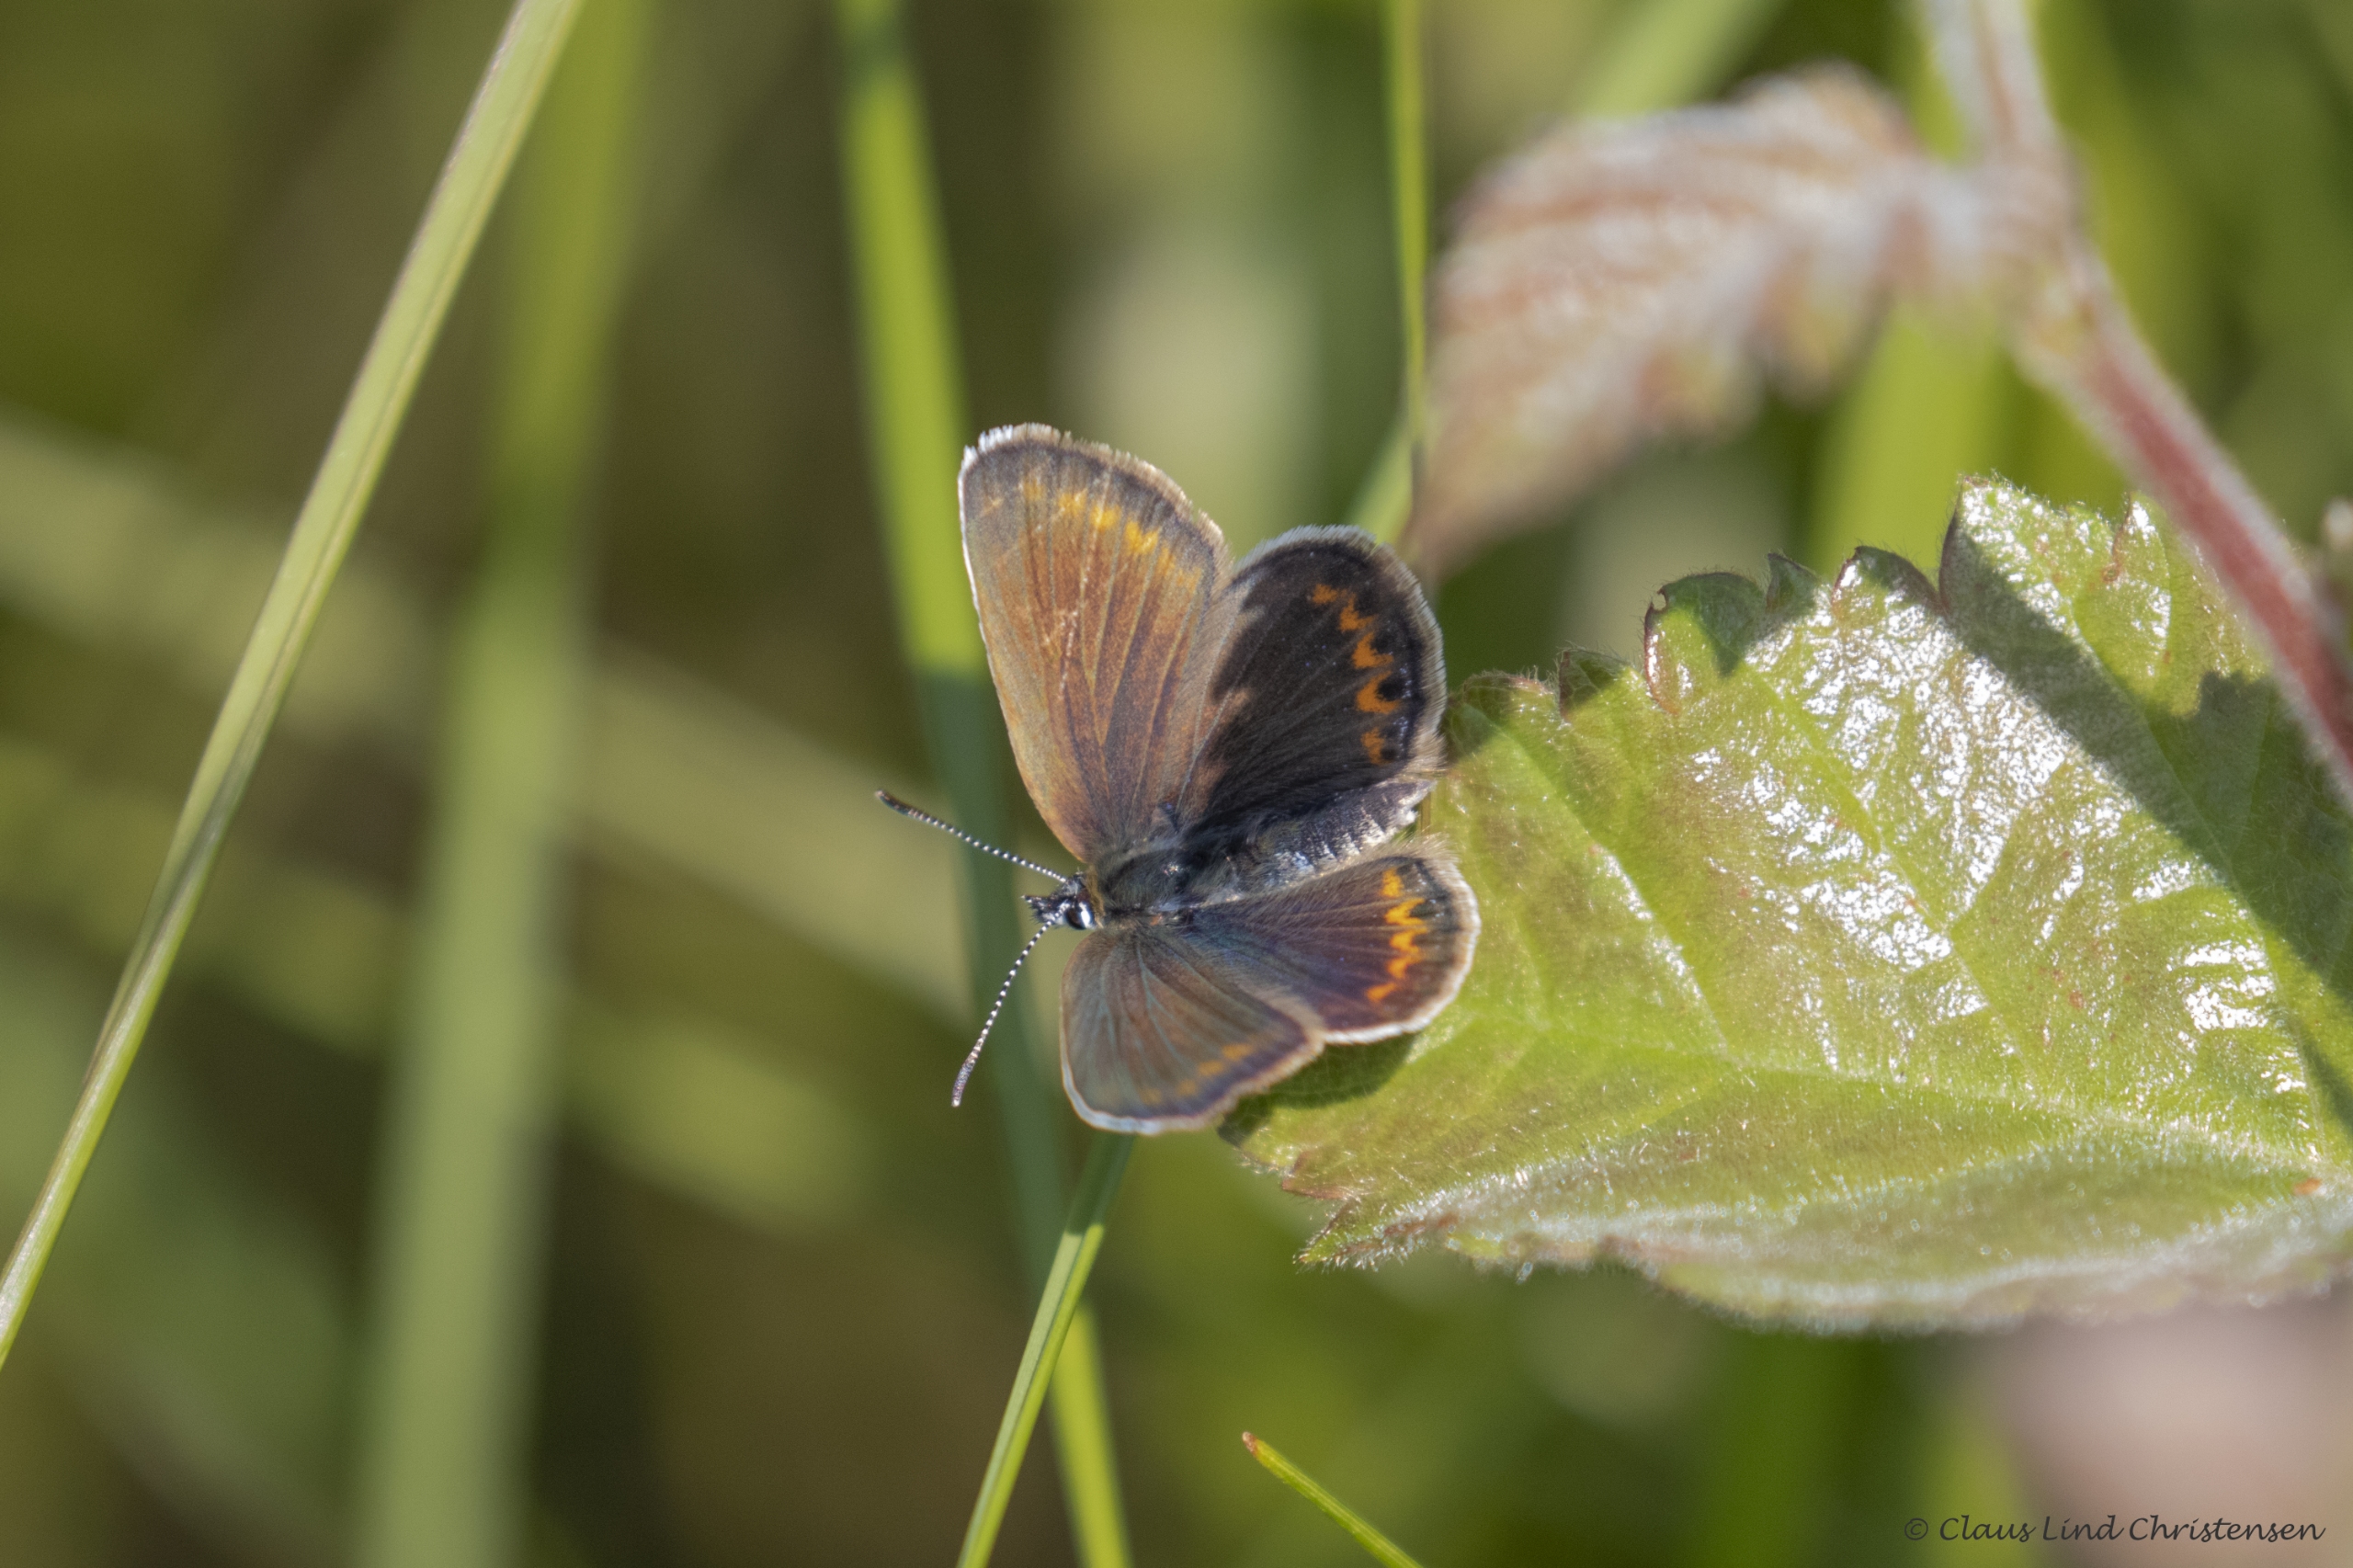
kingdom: Animalia
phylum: Arthropoda
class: Insecta
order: Lepidoptera
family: Lycaenidae
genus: Plebejus
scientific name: Plebejus argus
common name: Argusblåfugl
